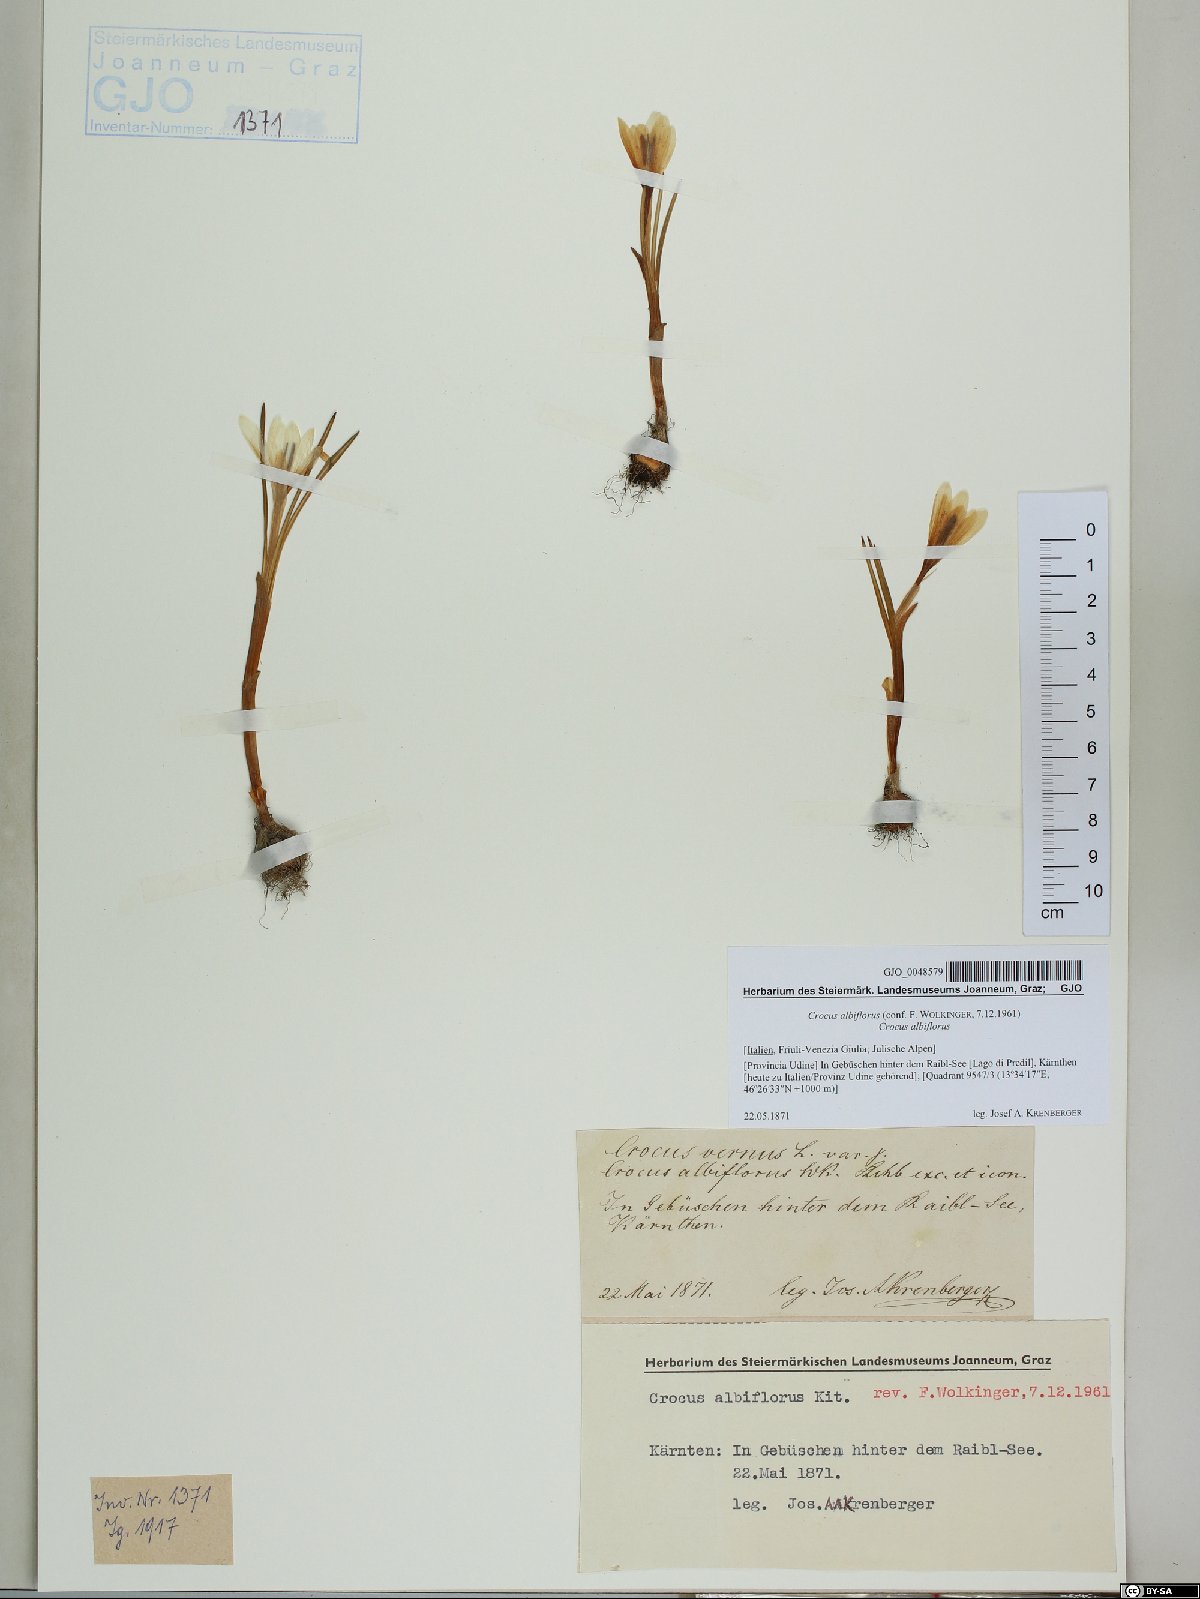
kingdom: Plantae
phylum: Tracheophyta
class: Liliopsida
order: Asparagales
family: Iridaceae
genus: Crocus
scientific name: Crocus vernus
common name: Spring crocus
